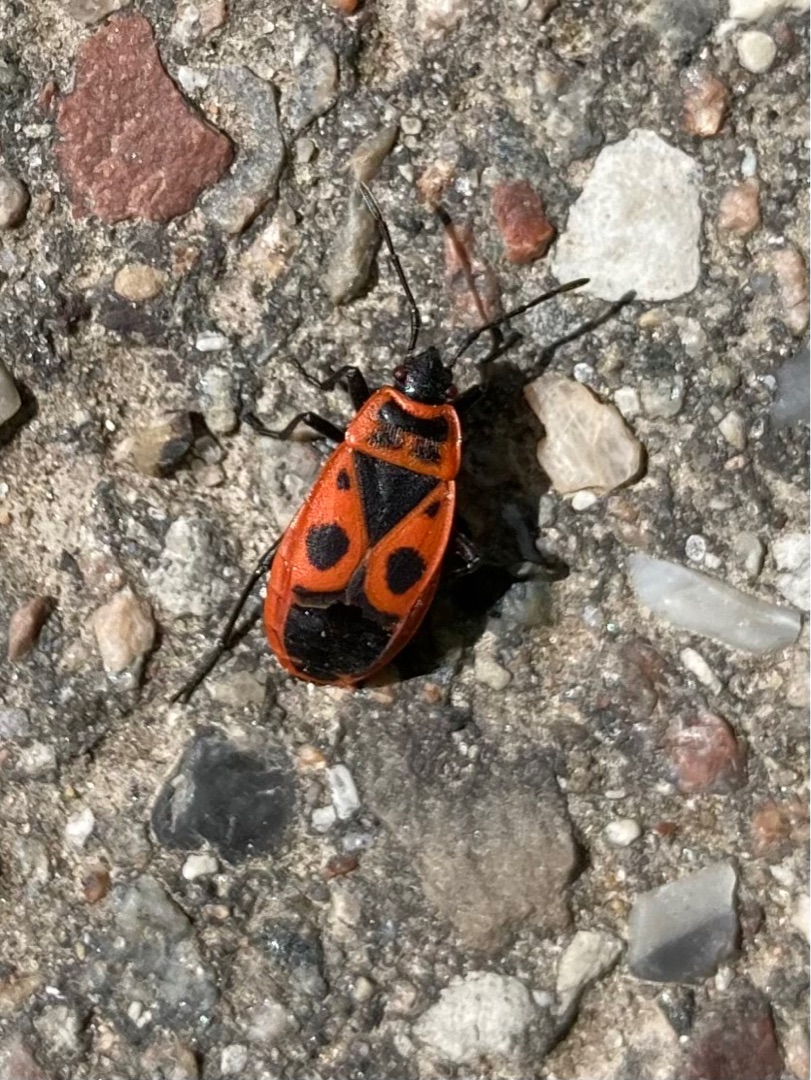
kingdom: Animalia
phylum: Arthropoda
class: Insecta
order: Hemiptera
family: Pyrrhocoridae
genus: Pyrrhocoris
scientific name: Pyrrhocoris apterus
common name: Ildtæge
